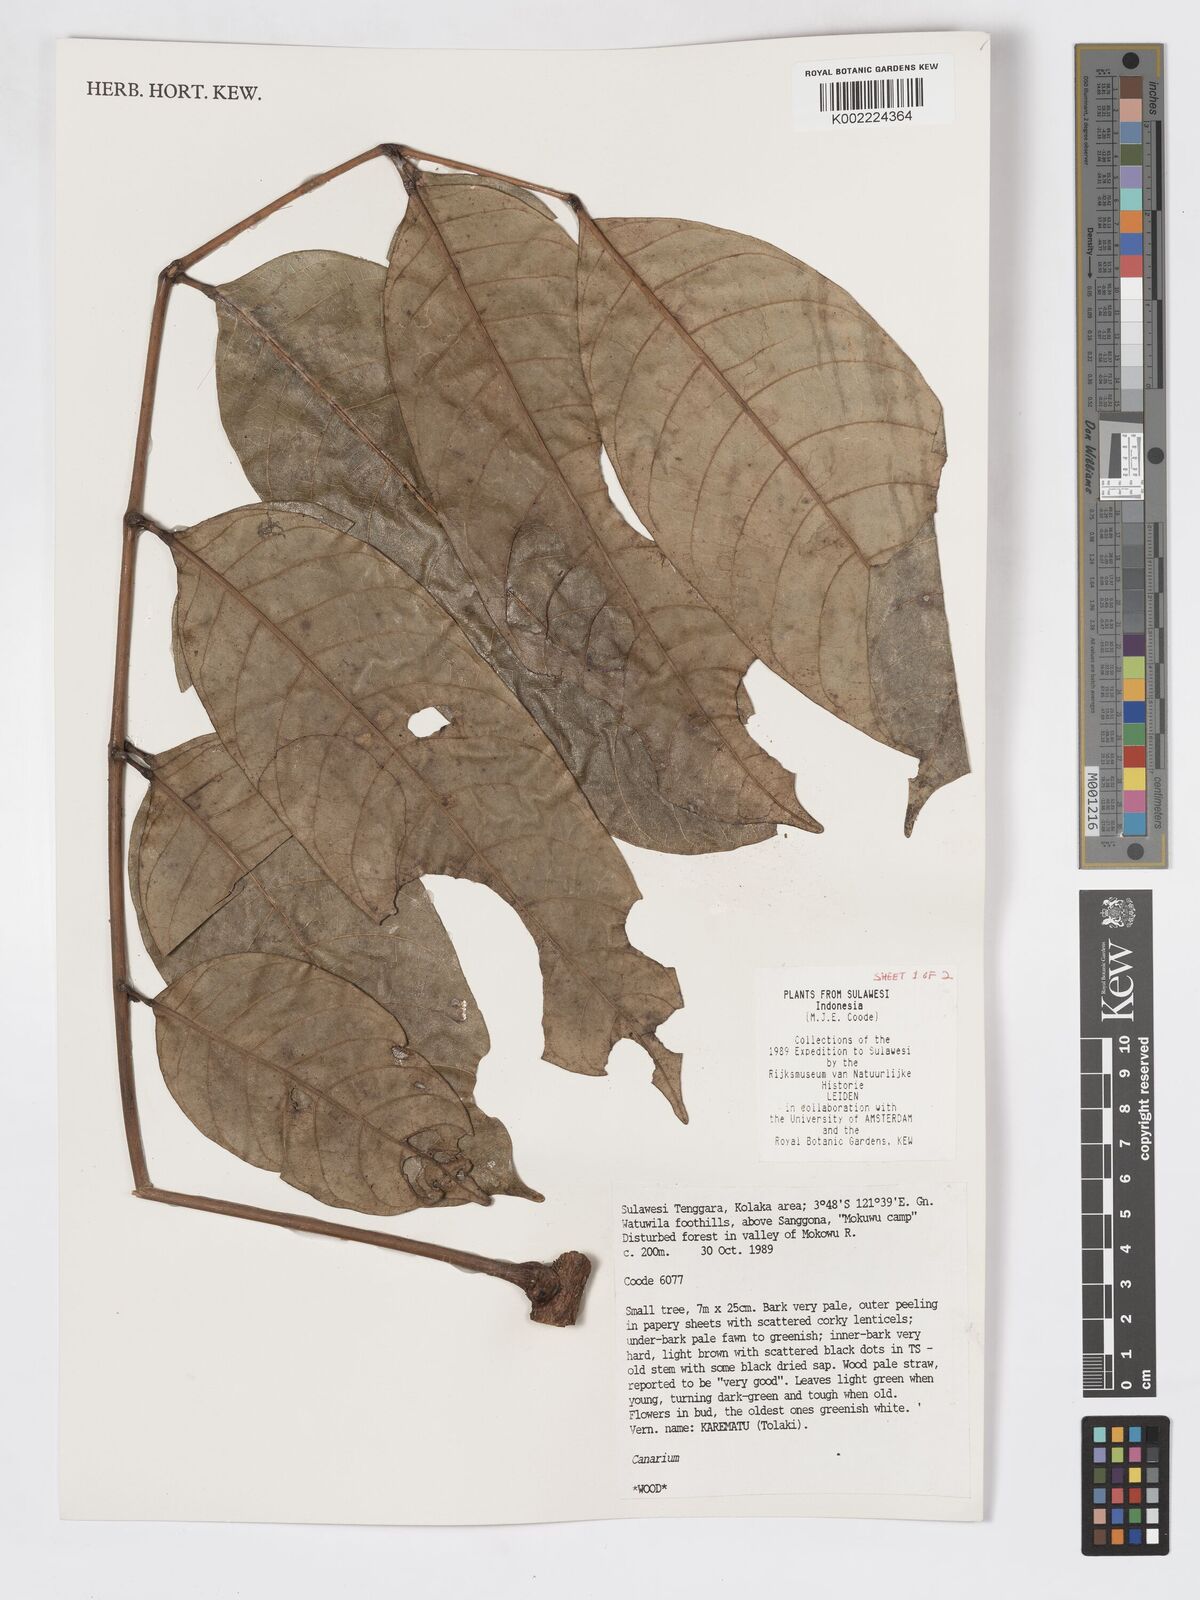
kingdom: Plantae
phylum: Tracheophyta
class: Magnoliopsida
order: Sapindales
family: Burseraceae
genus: Canarium
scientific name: Canarium
